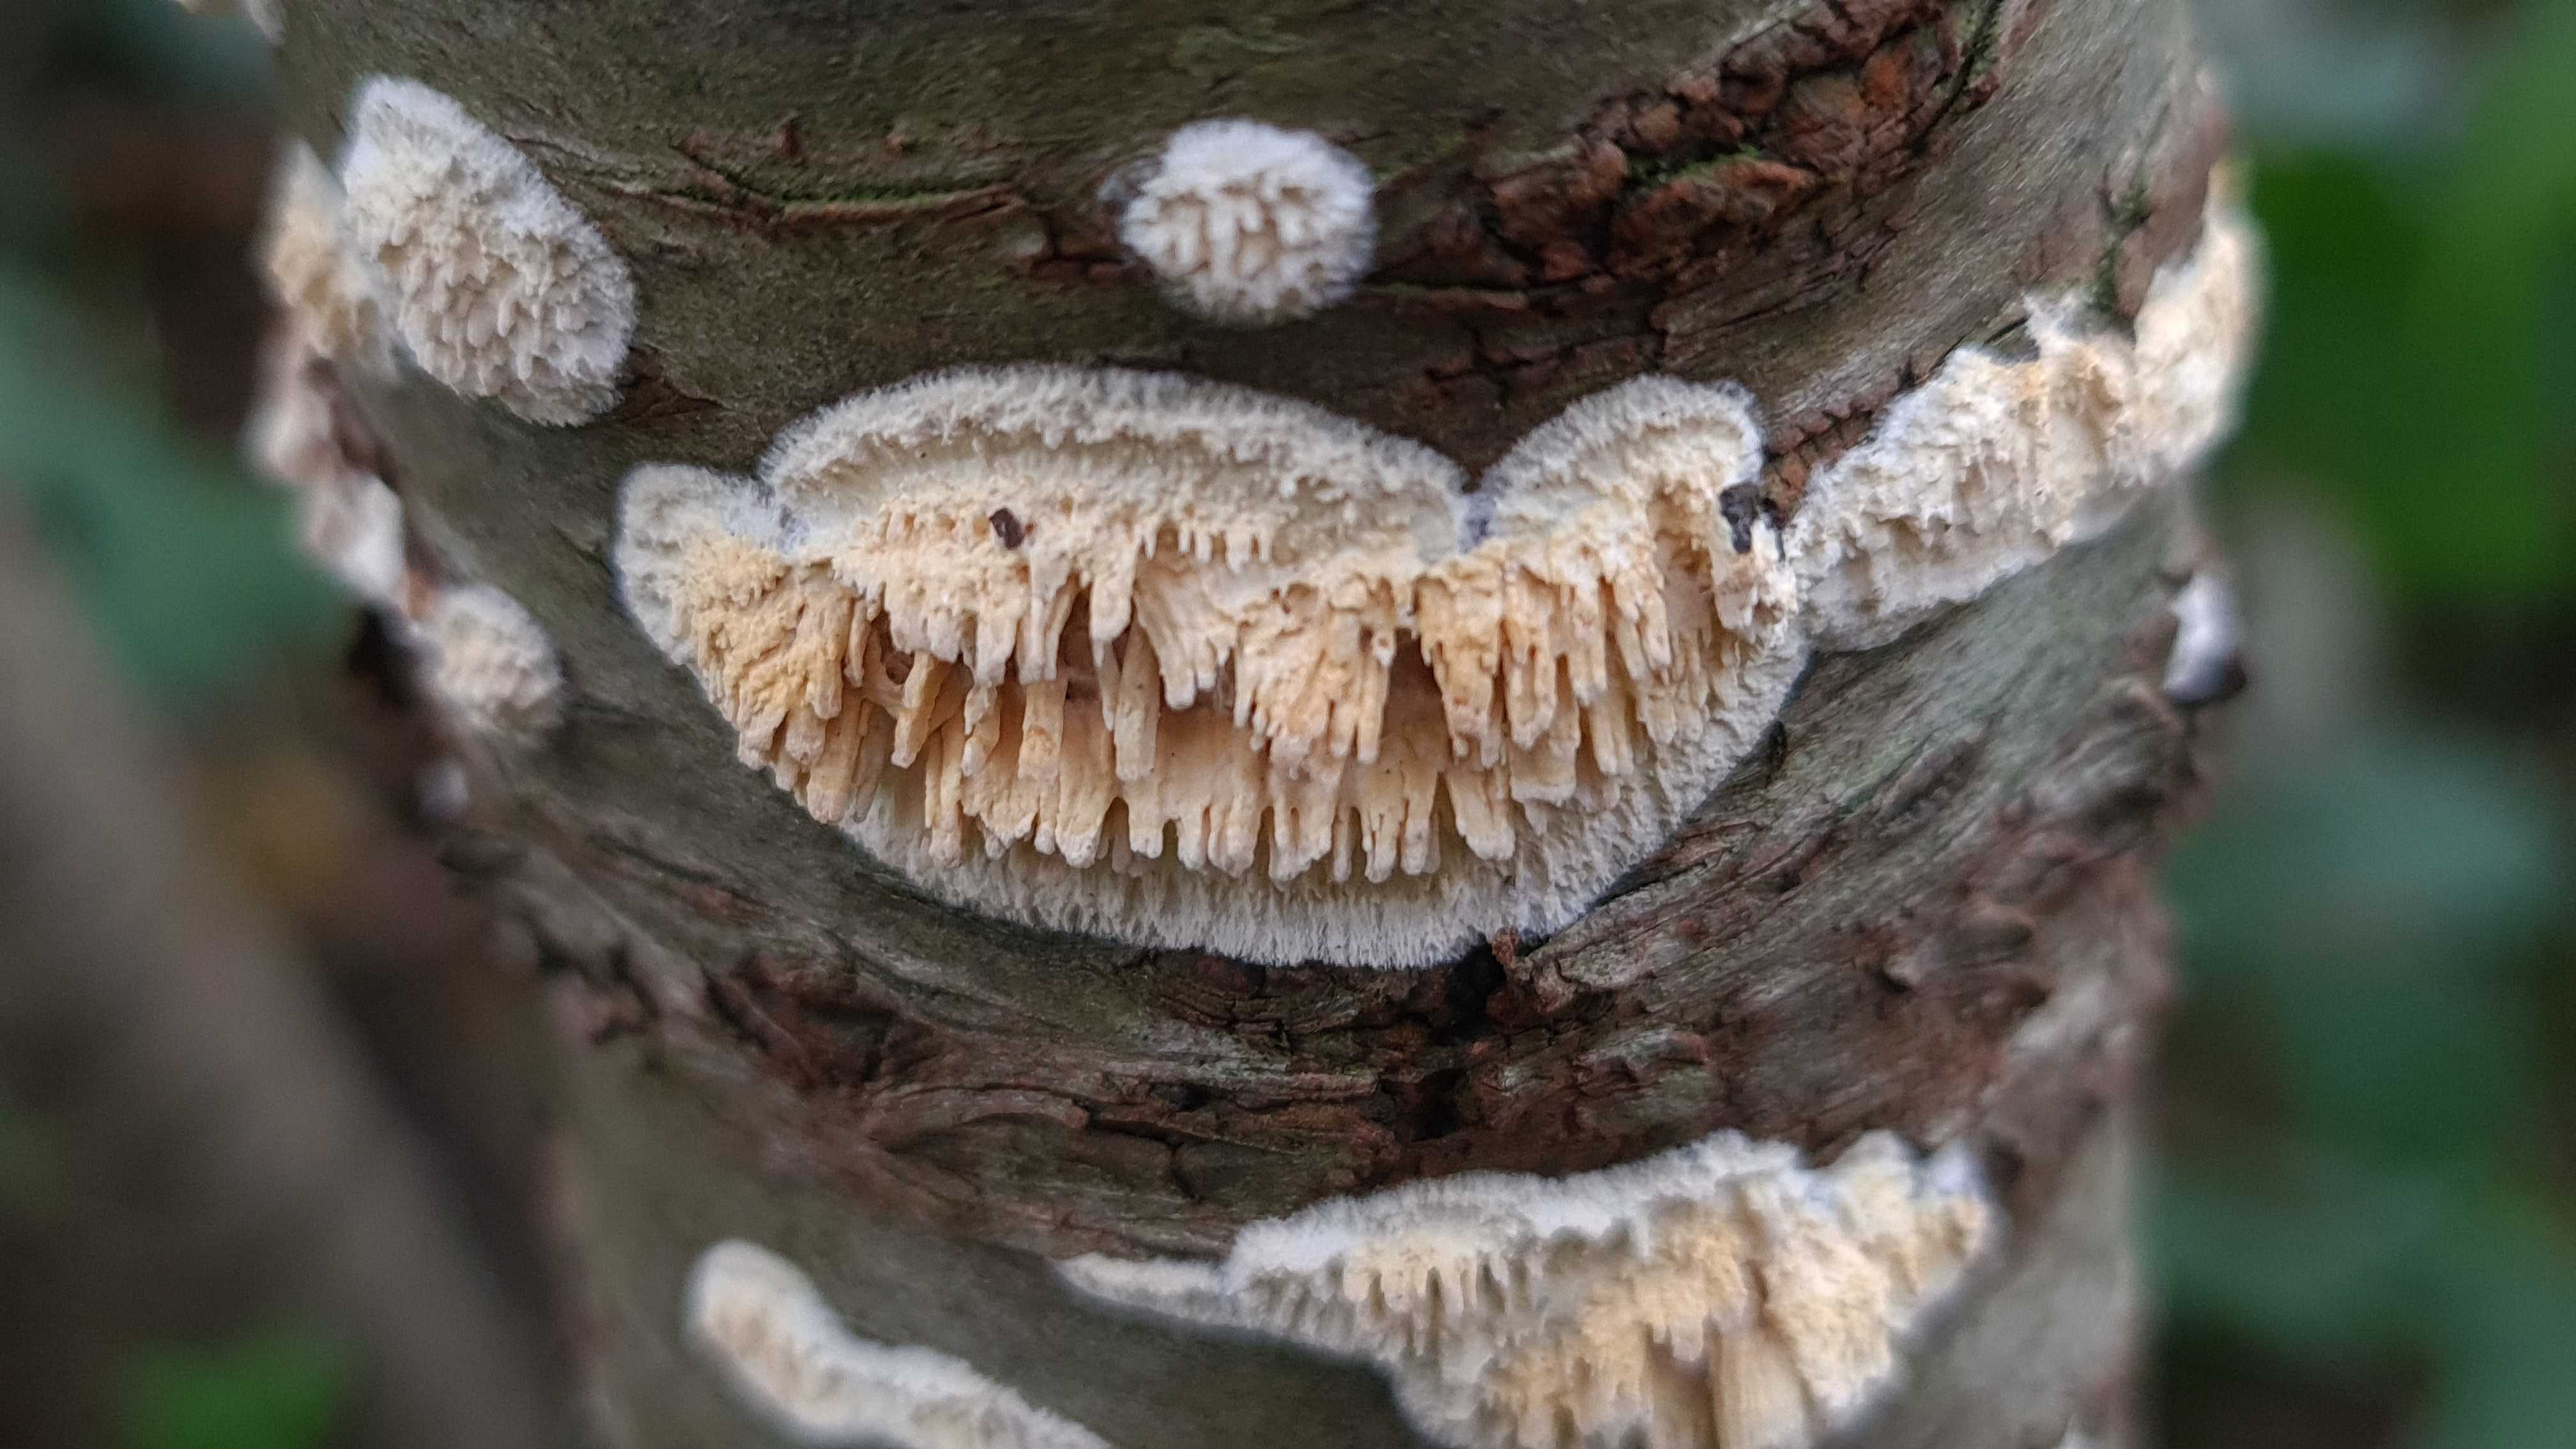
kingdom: Fungi
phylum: Basidiomycota
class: Agaricomycetes
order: Hymenochaetales
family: Schizoporaceae
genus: Xylodon
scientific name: Xylodon radula
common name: grovtandet kalkskind
